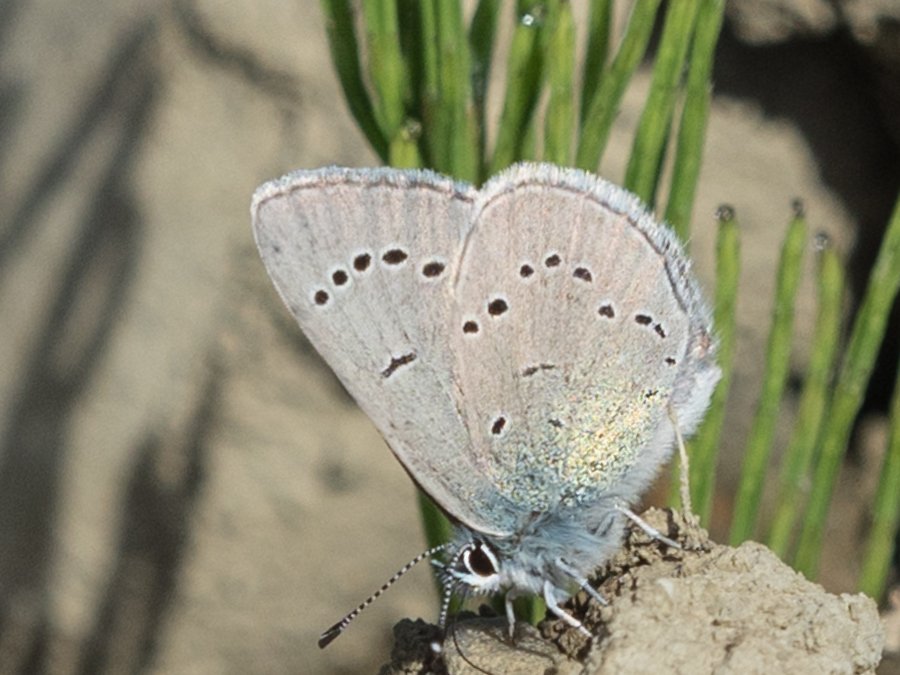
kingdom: Animalia
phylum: Arthropoda
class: Insecta
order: Lepidoptera
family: Lycaenidae
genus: Glaucopsyche
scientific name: Glaucopsyche lygdamus
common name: Silvery Blue
